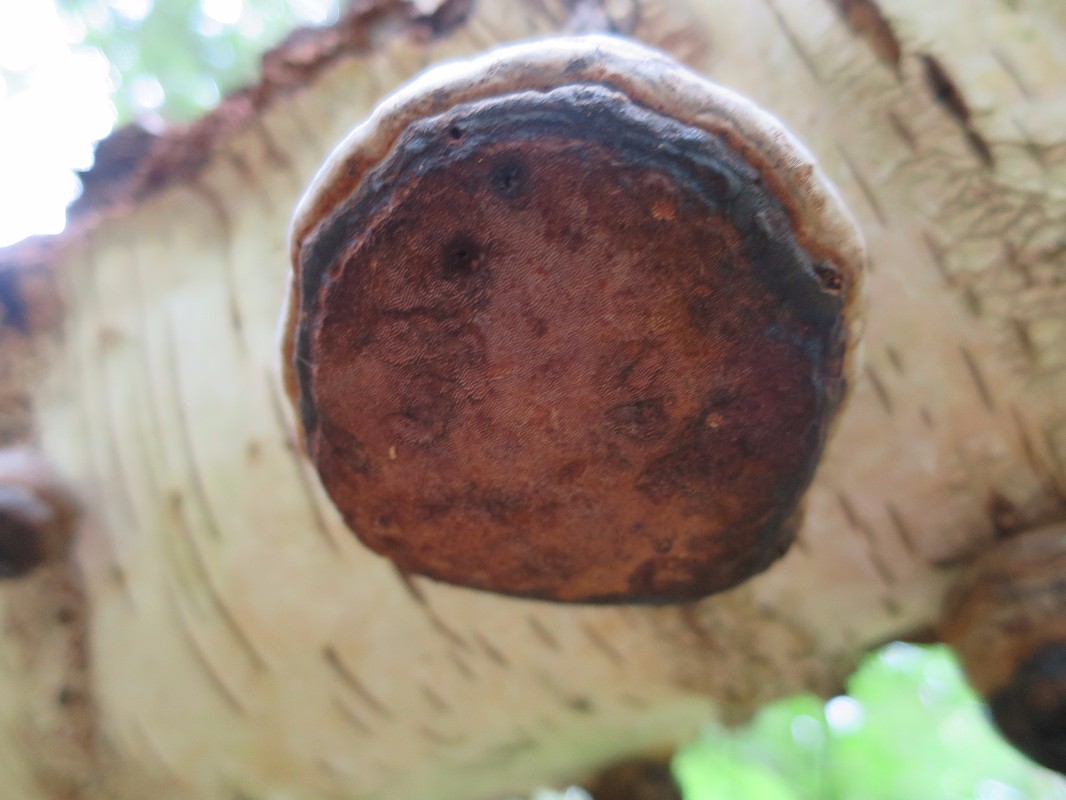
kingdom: Fungi
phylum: Basidiomycota
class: Agaricomycetes
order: Polyporales
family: Polyporaceae
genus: Fomes
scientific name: Fomes fomentarius
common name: tøndersvamp
